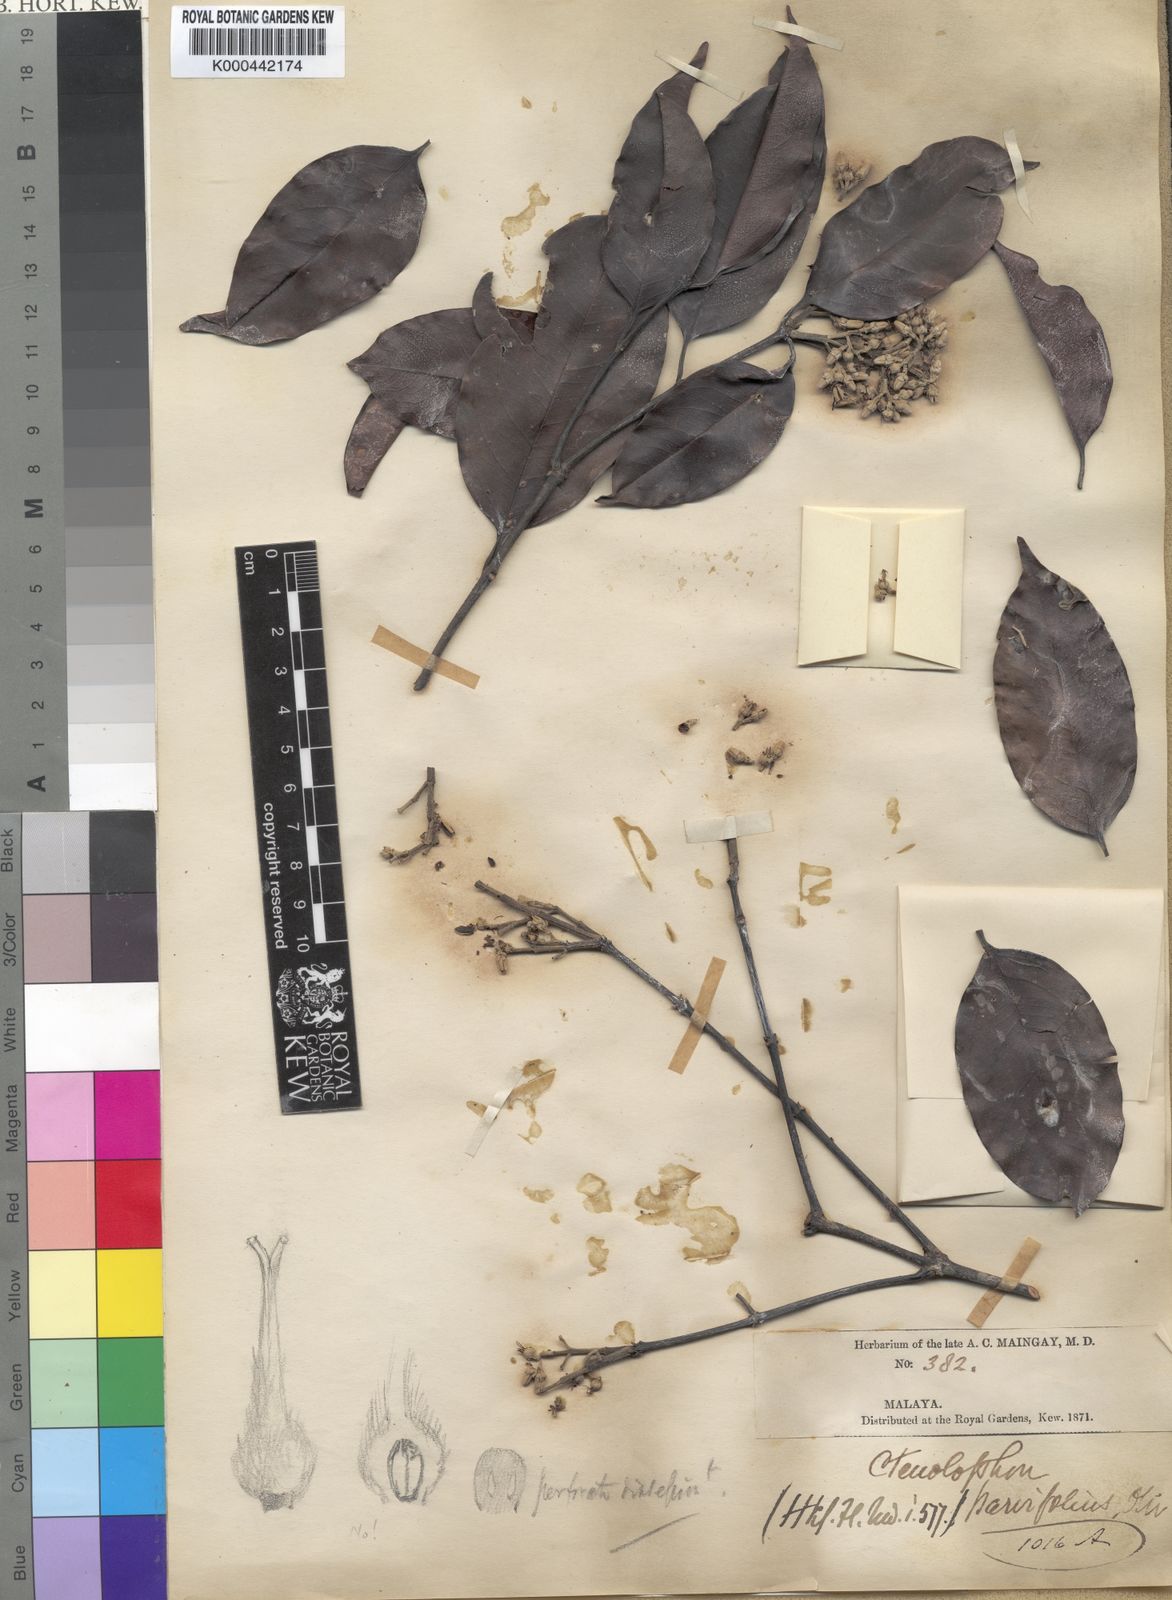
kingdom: Plantae
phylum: Tracheophyta
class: Magnoliopsida
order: Malpighiales
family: Ctenolophonaceae
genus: Ctenolophon
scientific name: Ctenolophon parvifolius
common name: Mertas
